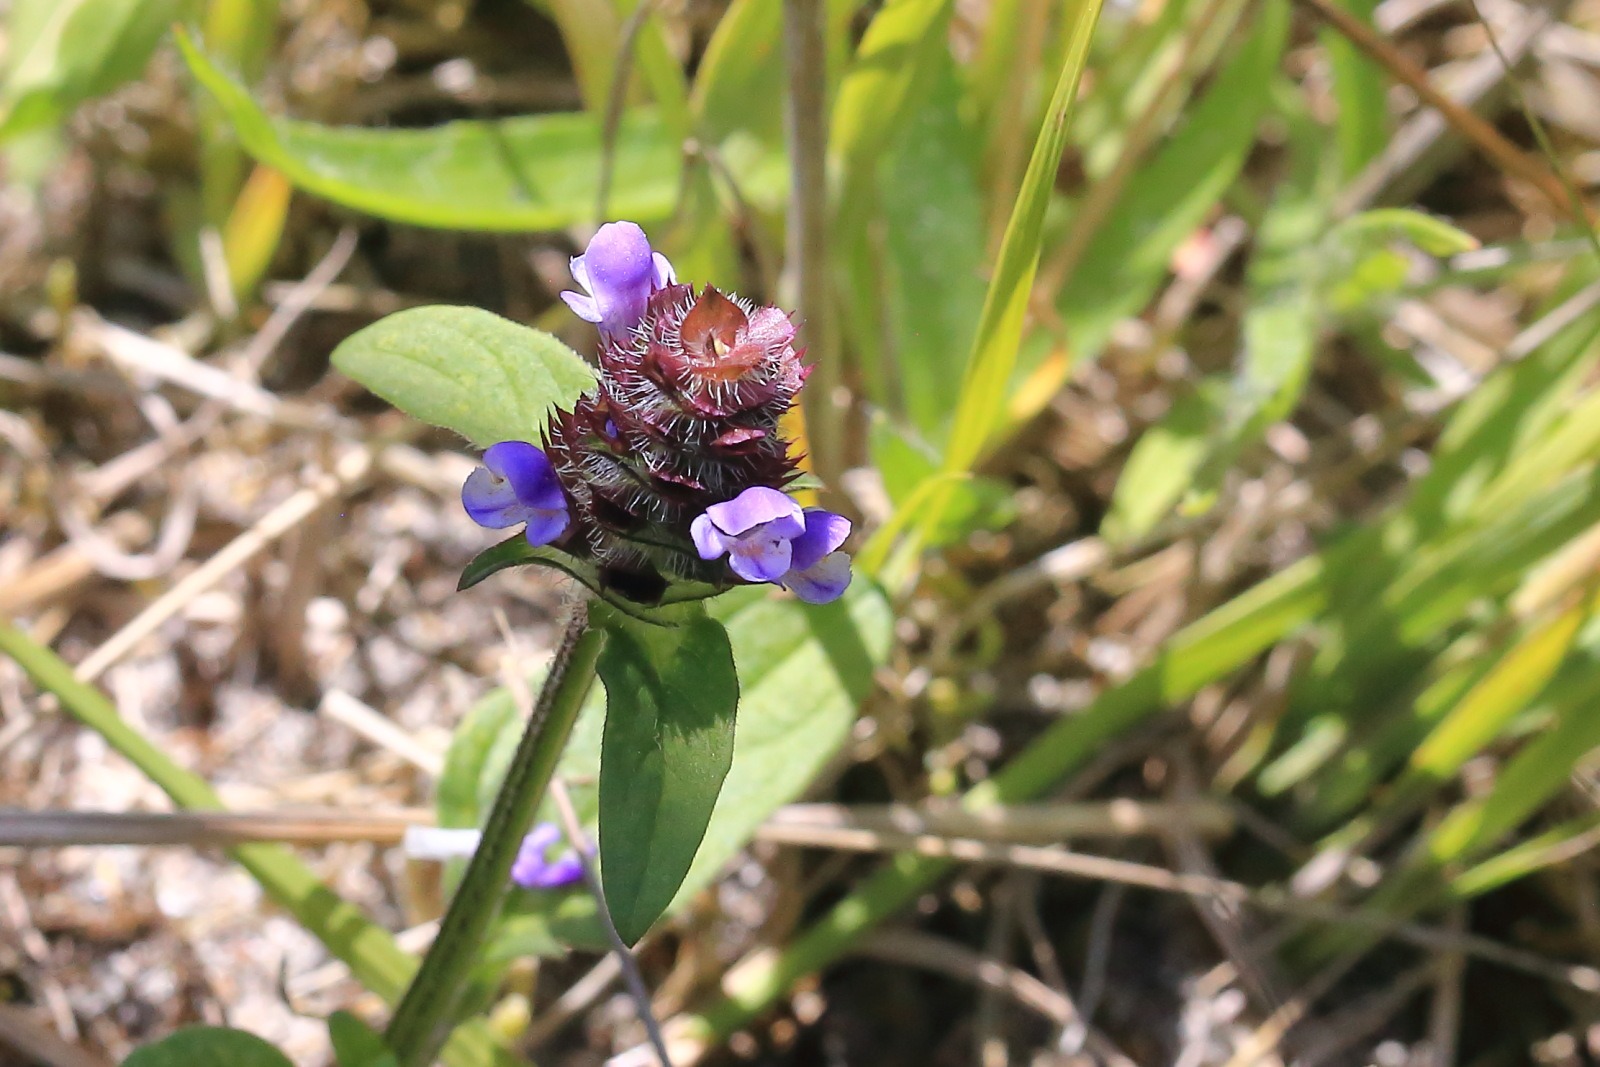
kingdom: Plantae
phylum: Tracheophyta
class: Magnoliopsida
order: Lamiales
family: Lamiaceae
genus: Prunella
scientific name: Prunella vulgaris
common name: Almindelig brunelle
